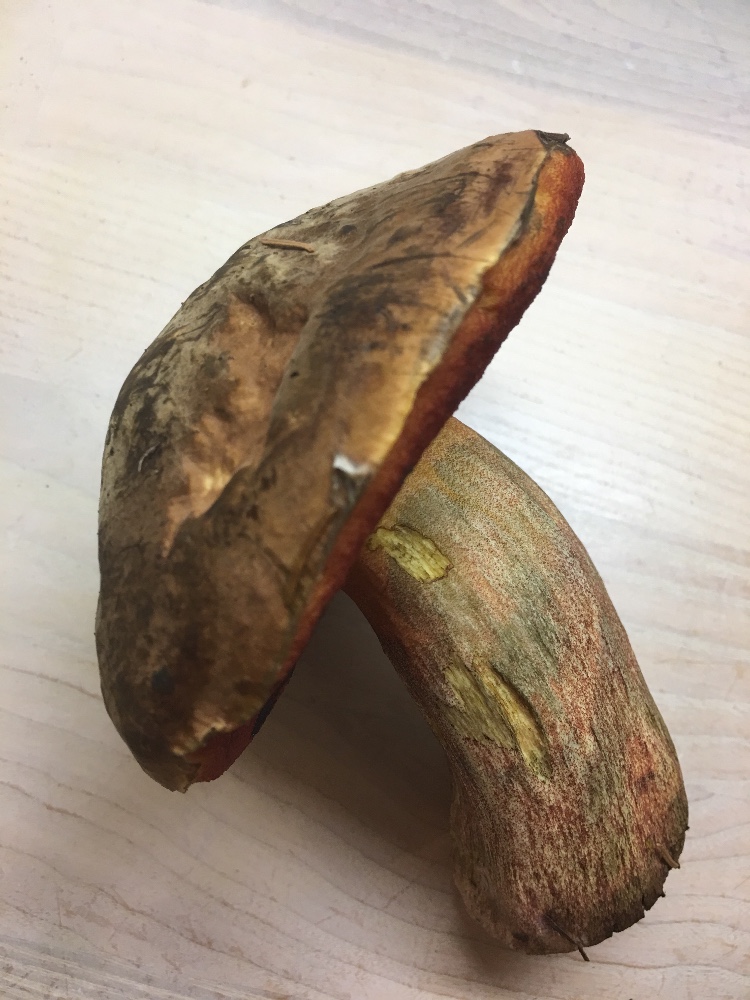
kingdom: Fungi
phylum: Basidiomycota
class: Agaricomycetes
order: Boletales
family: Boletaceae
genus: Neoboletus
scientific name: Neoboletus erythropus
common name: punktstokket indigorørhat
